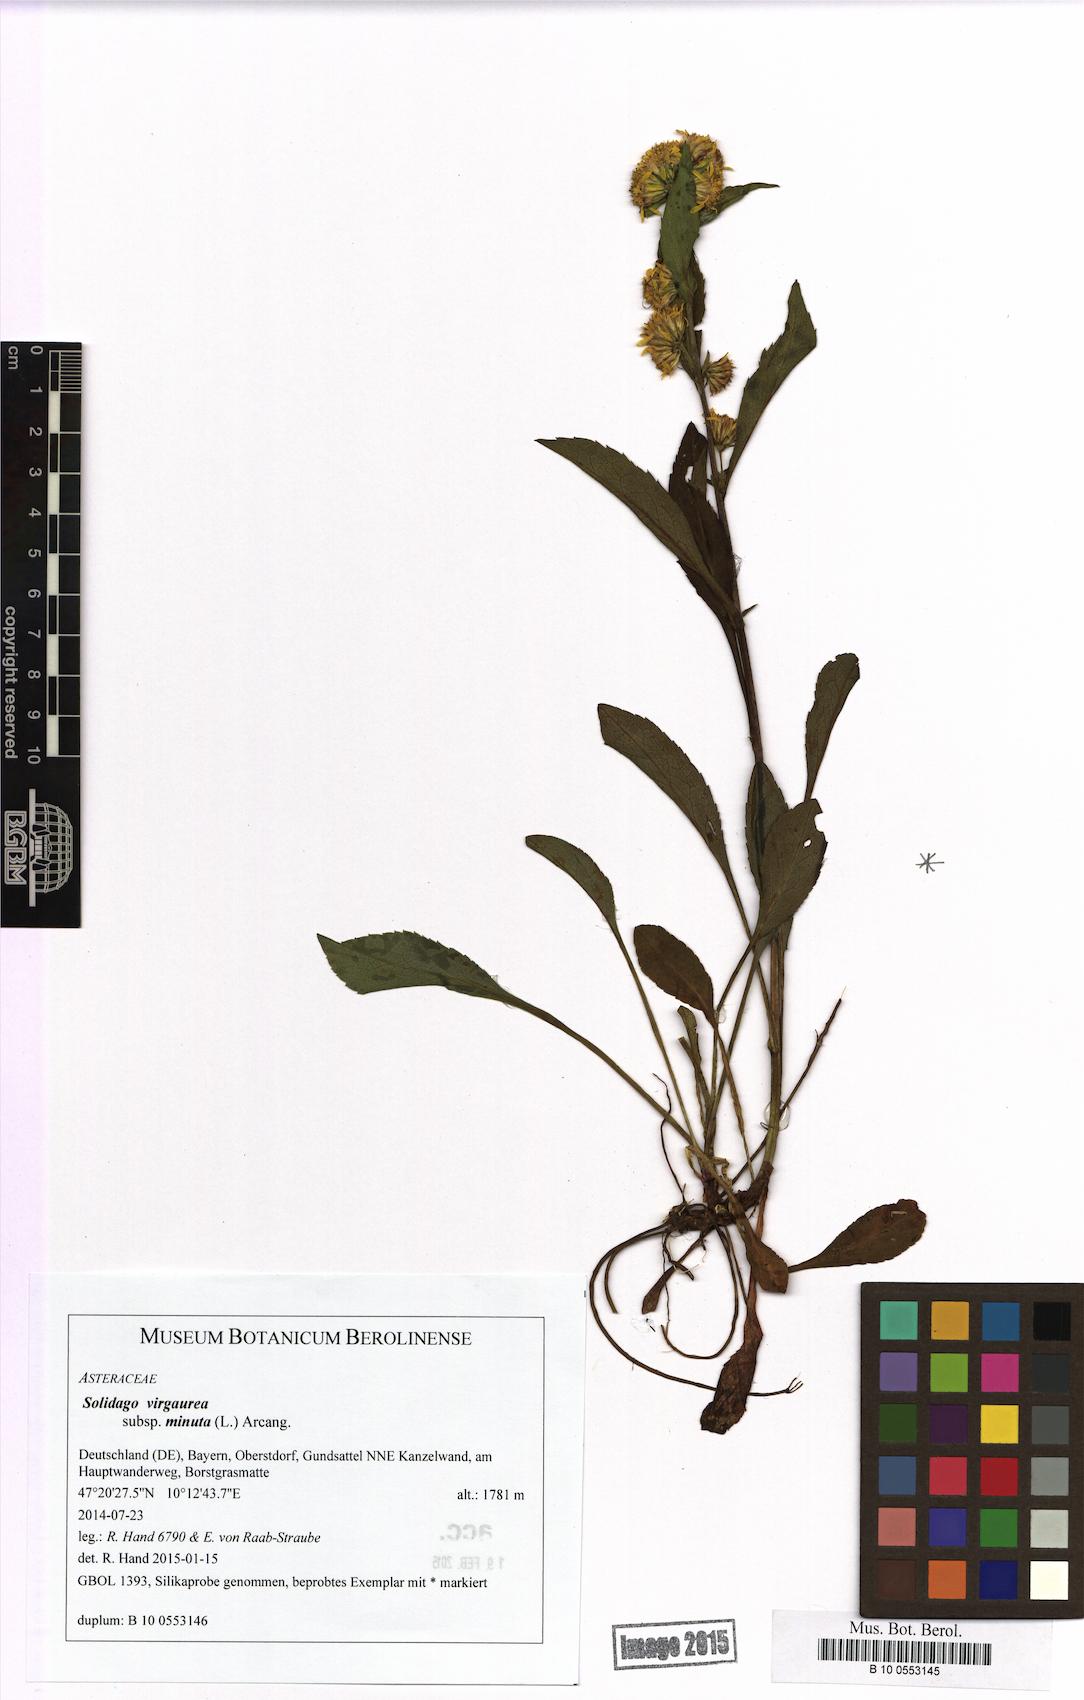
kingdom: Plantae
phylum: Tracheophyta
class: Magnoliopsida
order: Asterales
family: Asteraceae
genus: Solidago
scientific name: Solidago virgaurea
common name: Goldenrod
